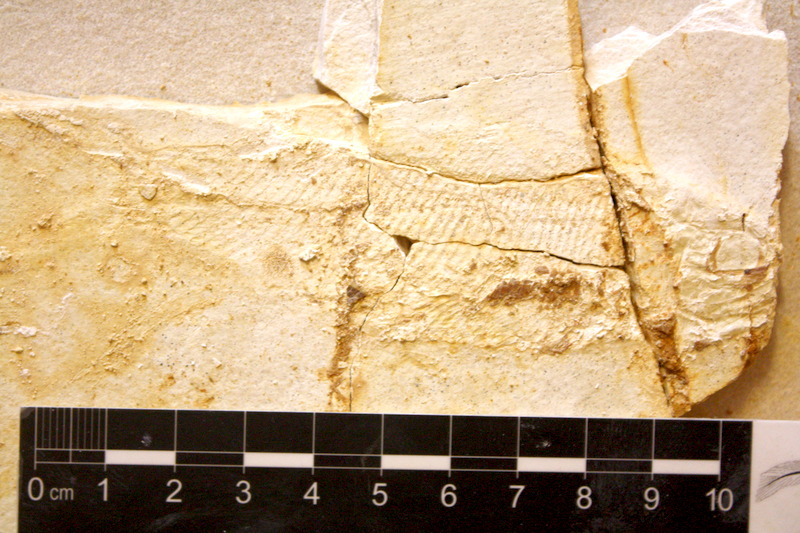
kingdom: Animalia
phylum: Chordata
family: Ankylophoridae
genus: Pholidophoristion
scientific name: Pholidophoristion ovatus
